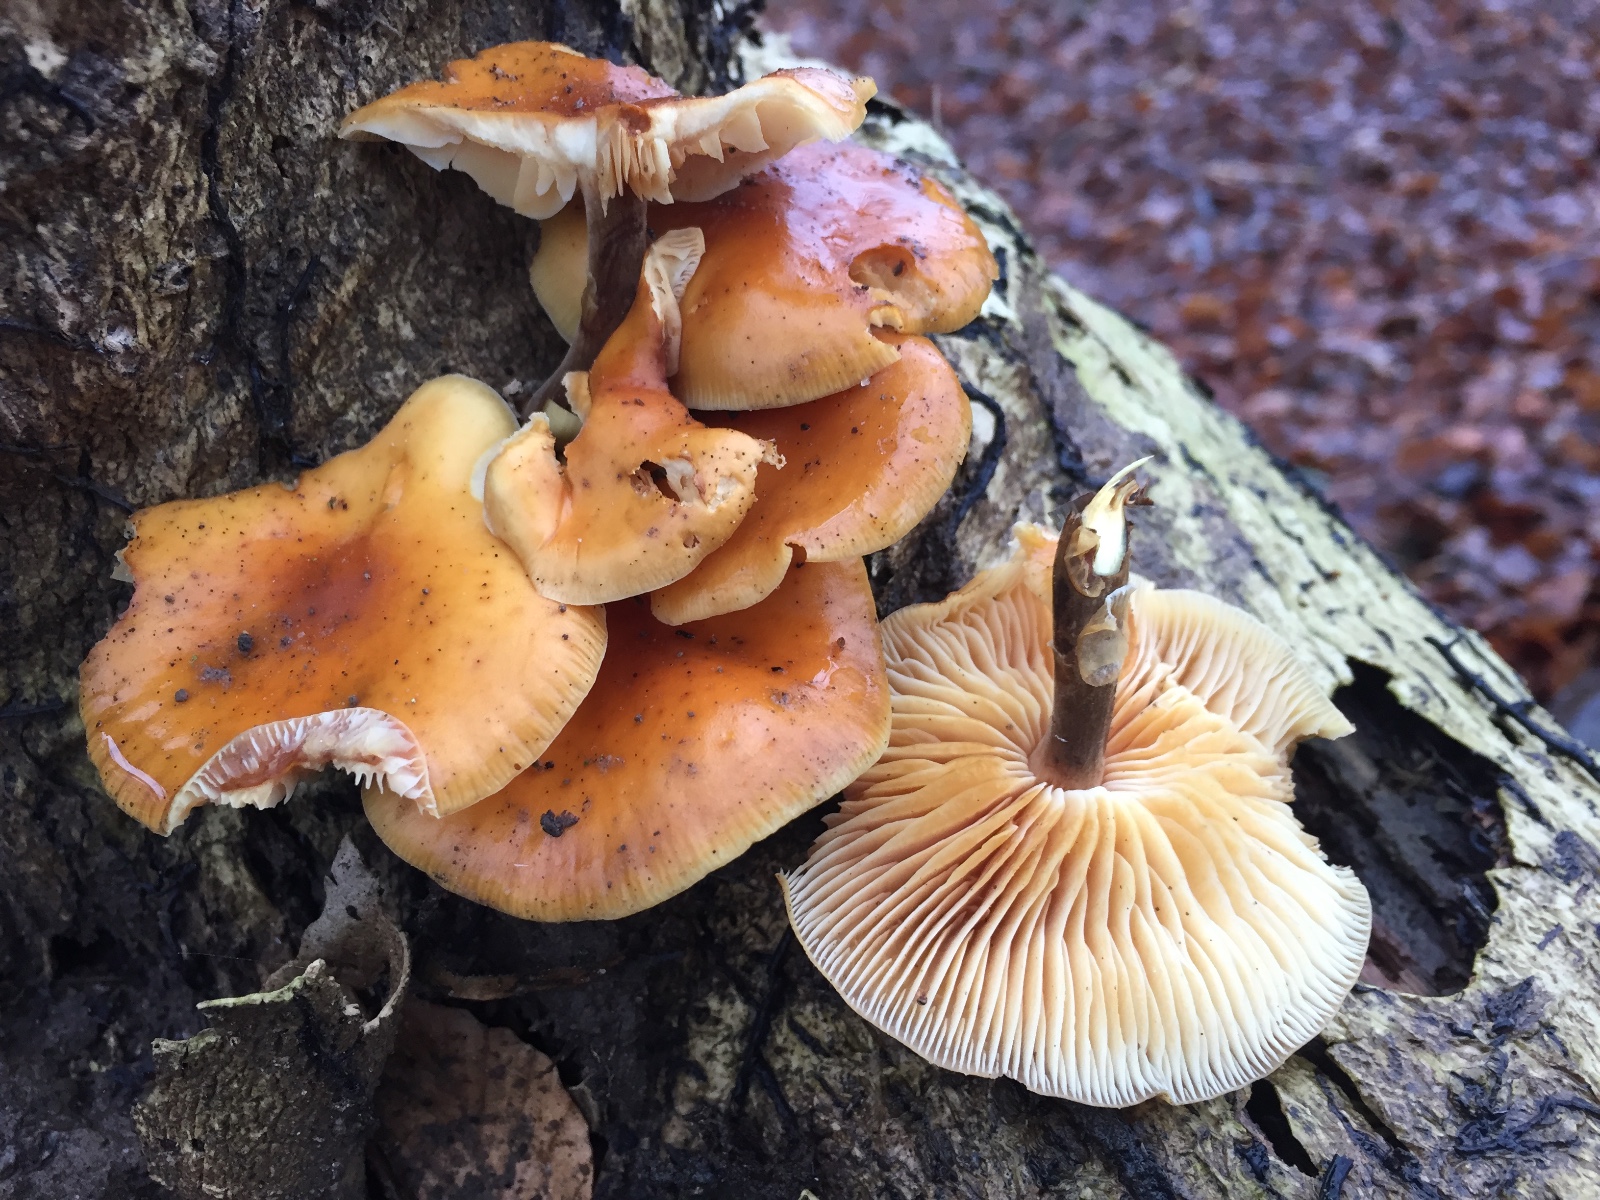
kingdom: Fungi
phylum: Basidiomycota
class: Agaricomycetes
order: Agaricales
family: Physalacriaceae
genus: Flammulina
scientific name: Flammulina velutipes
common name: gul fløjlsfod
